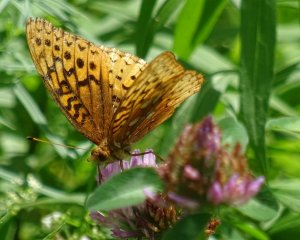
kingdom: Animalia
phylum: Arthropoda
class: Insecta
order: Lepidoptera
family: Nymphalidae
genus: Speyeria
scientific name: Speyeria cybele
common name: Great Spangled Fritillary
